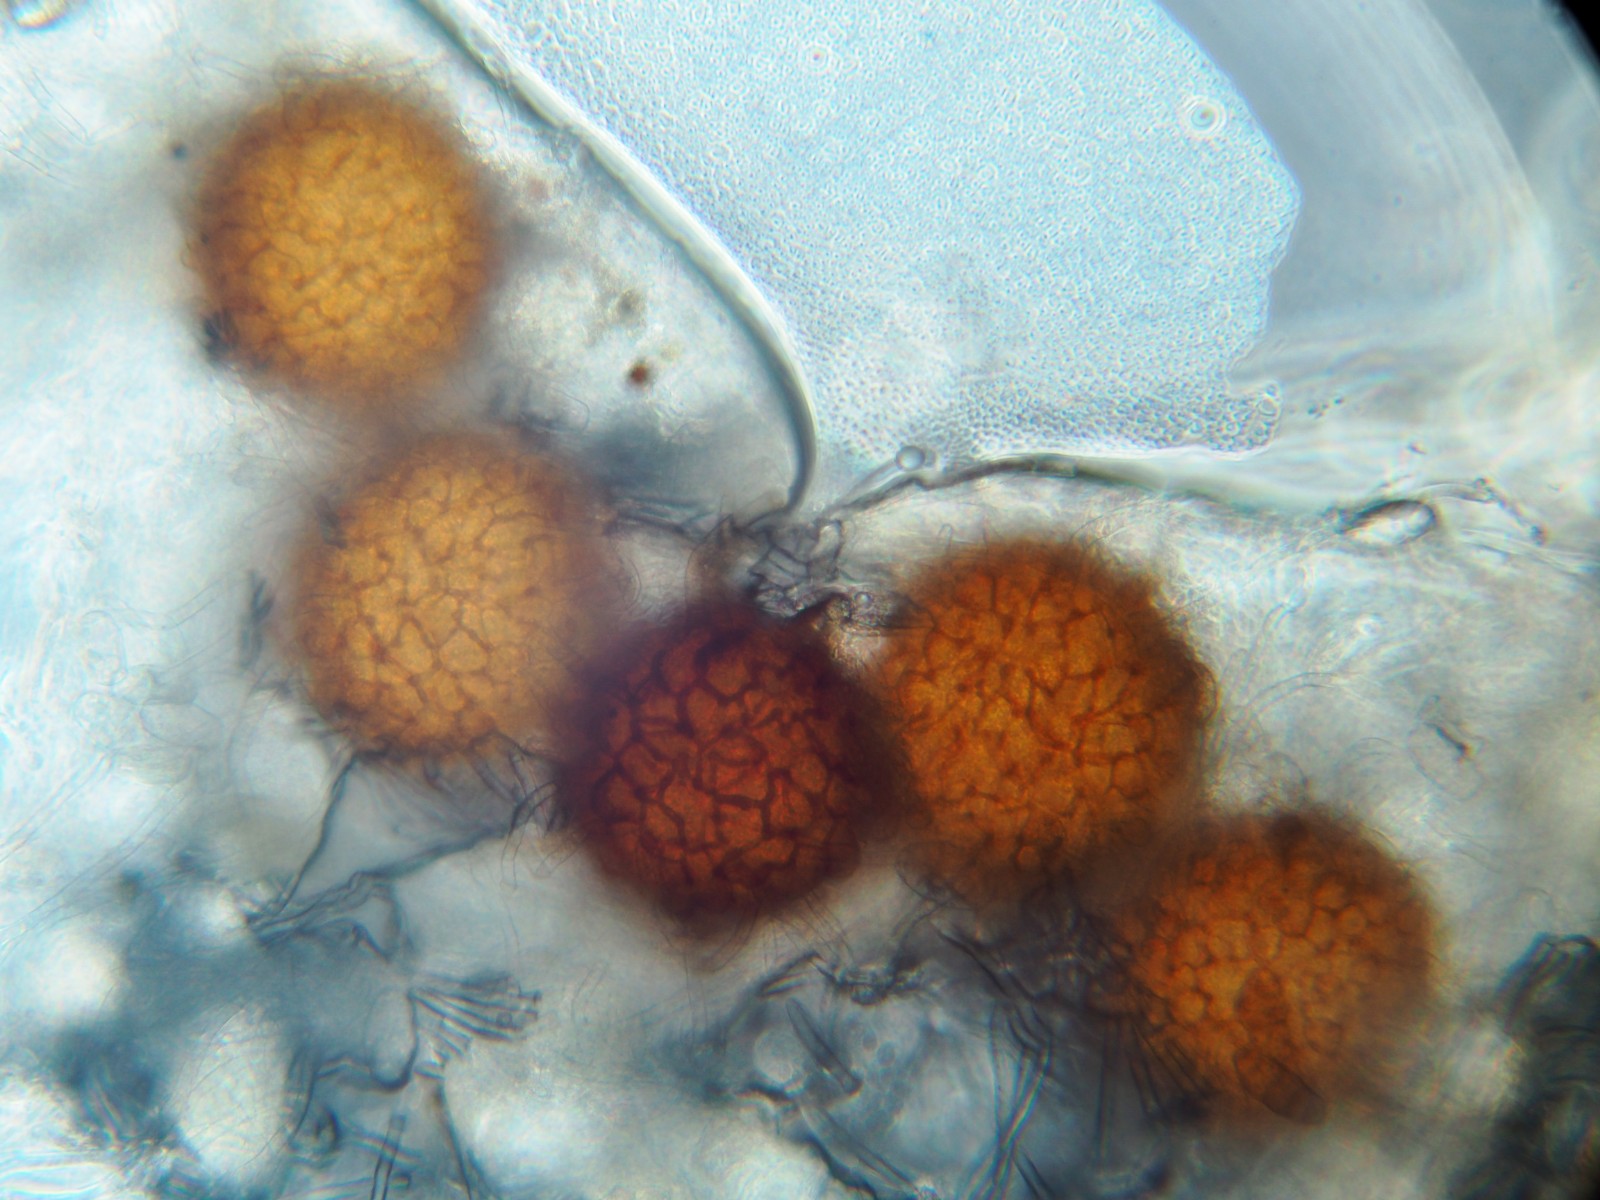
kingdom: Fungi
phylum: Ascomycota
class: Leotiomycetes
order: Helotiales
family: Erysiphaceae
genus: Golovinomyces
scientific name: Golovinomyces asperifoliorum
